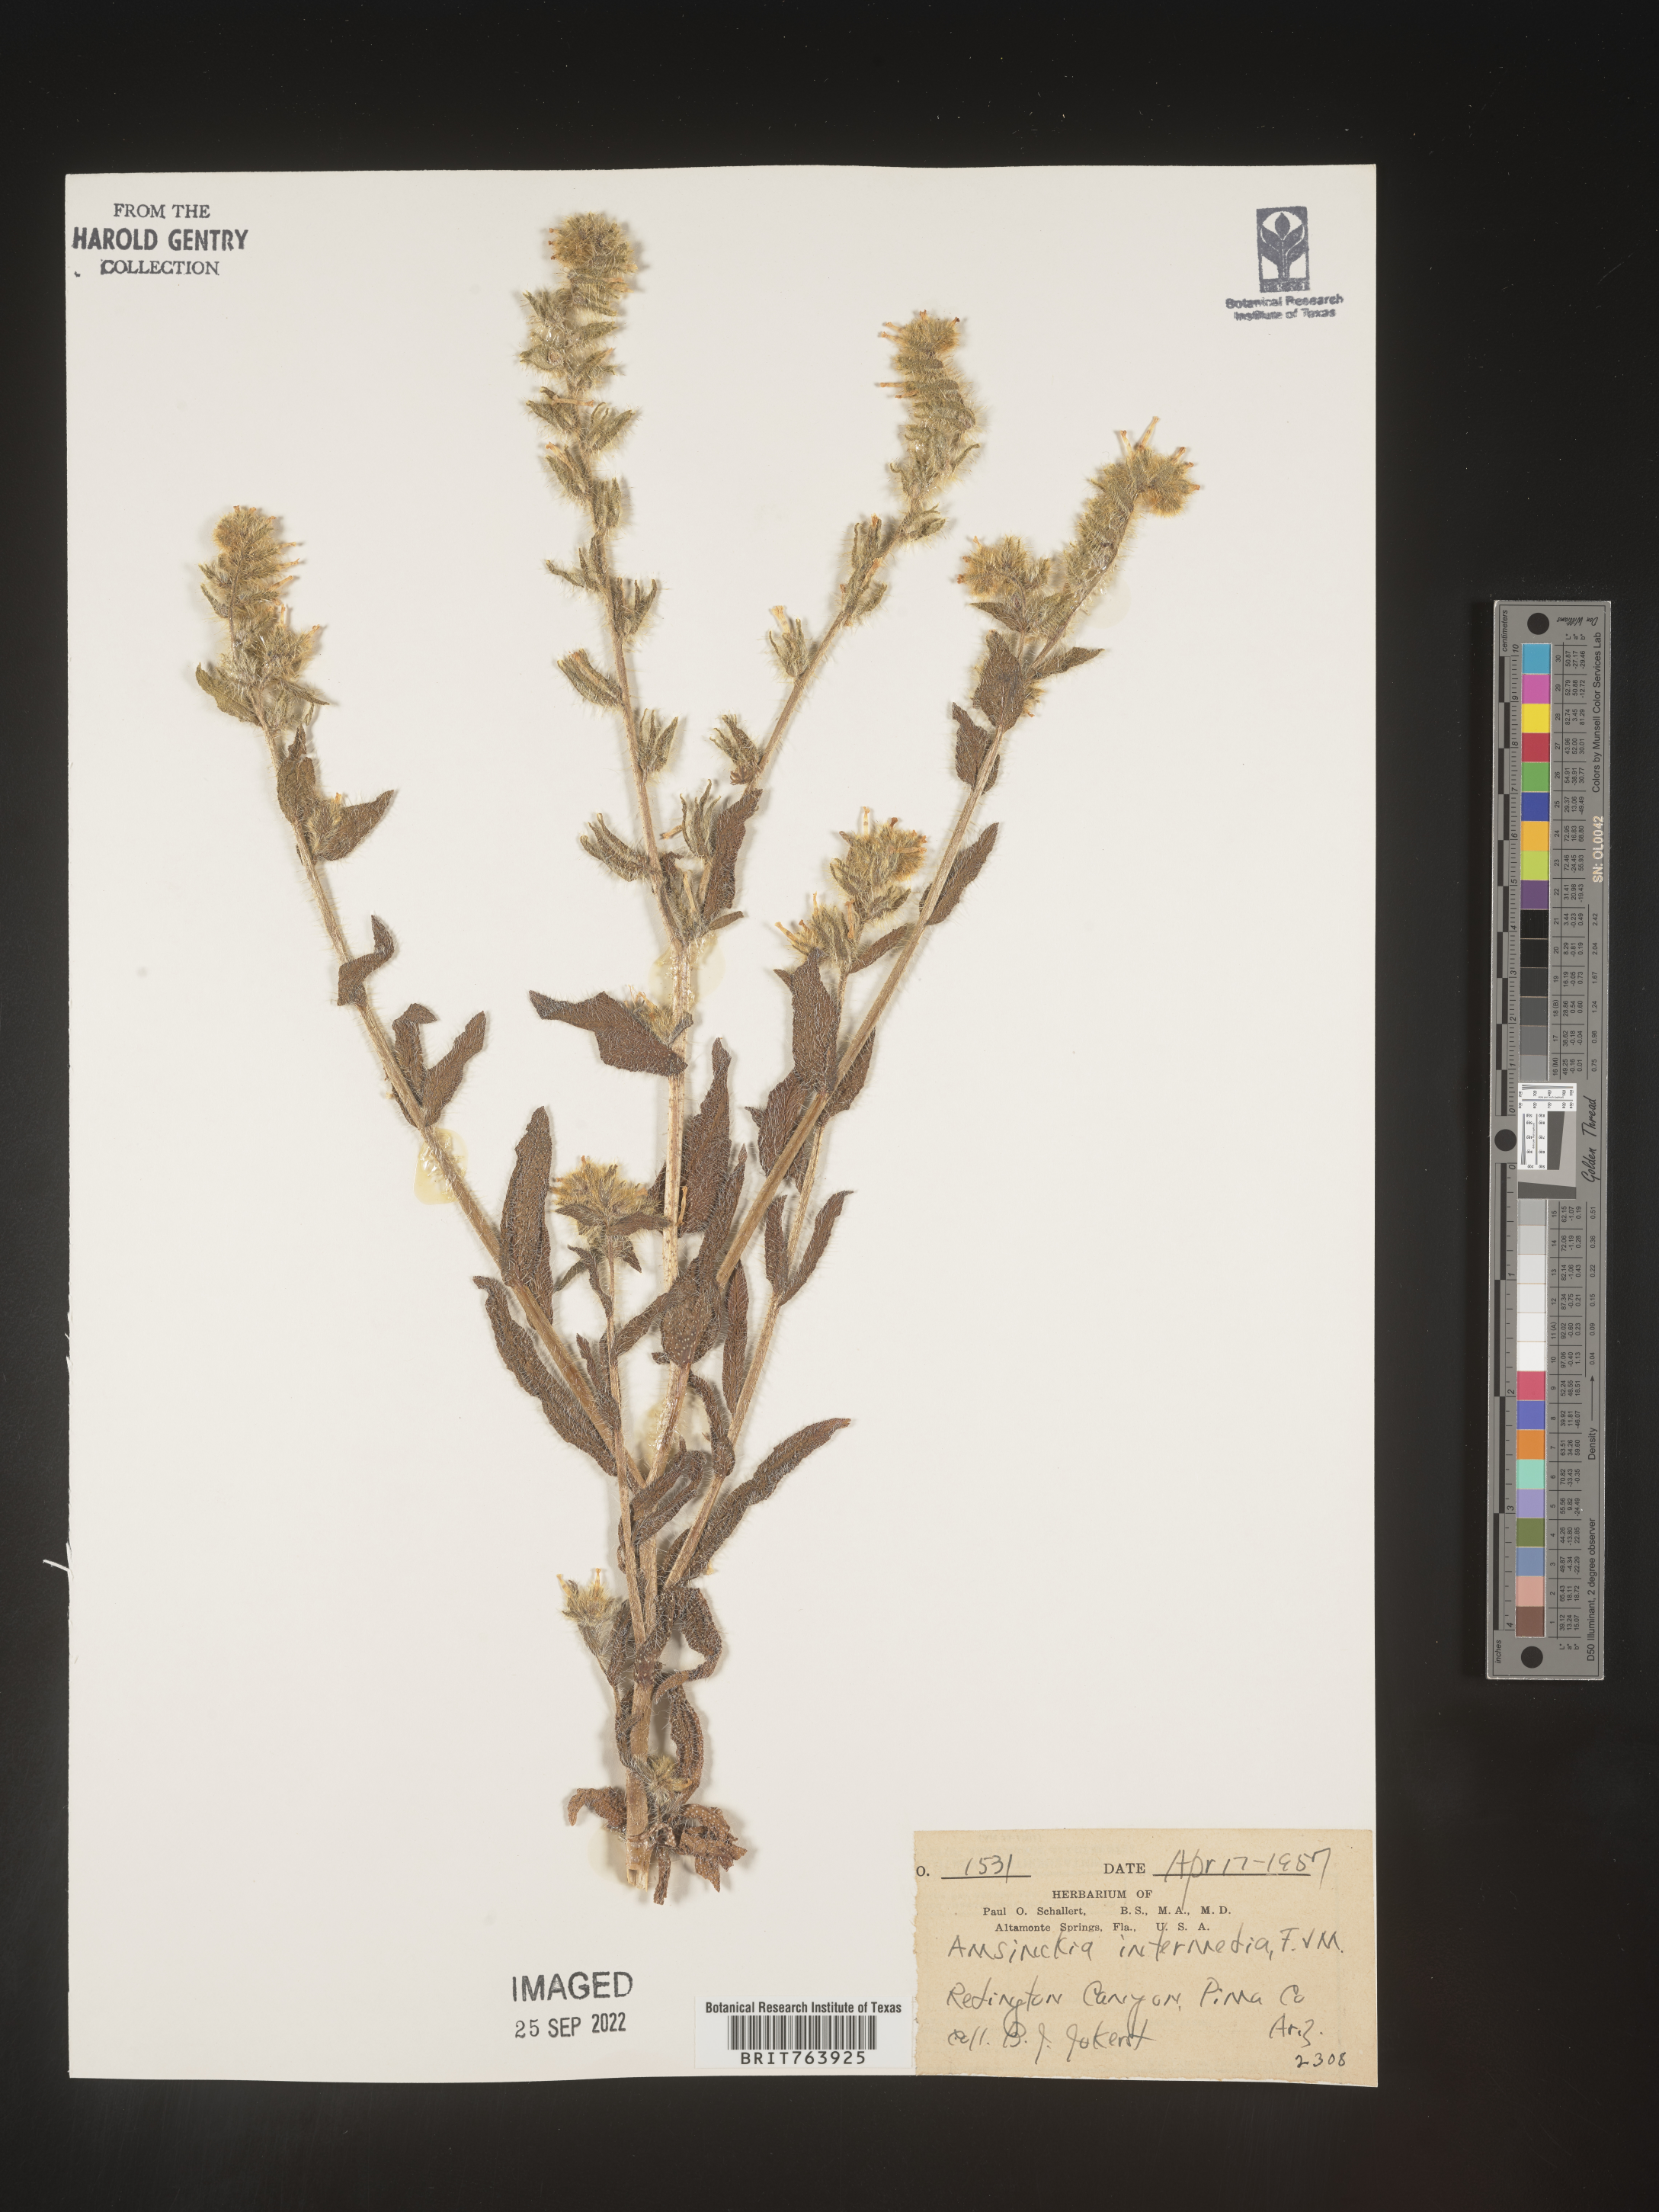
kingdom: Plantae
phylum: Tracheophyta
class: Magnoliopsida
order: Boraginales
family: Boraginaceae
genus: Amsinckia
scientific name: Amsinckia
